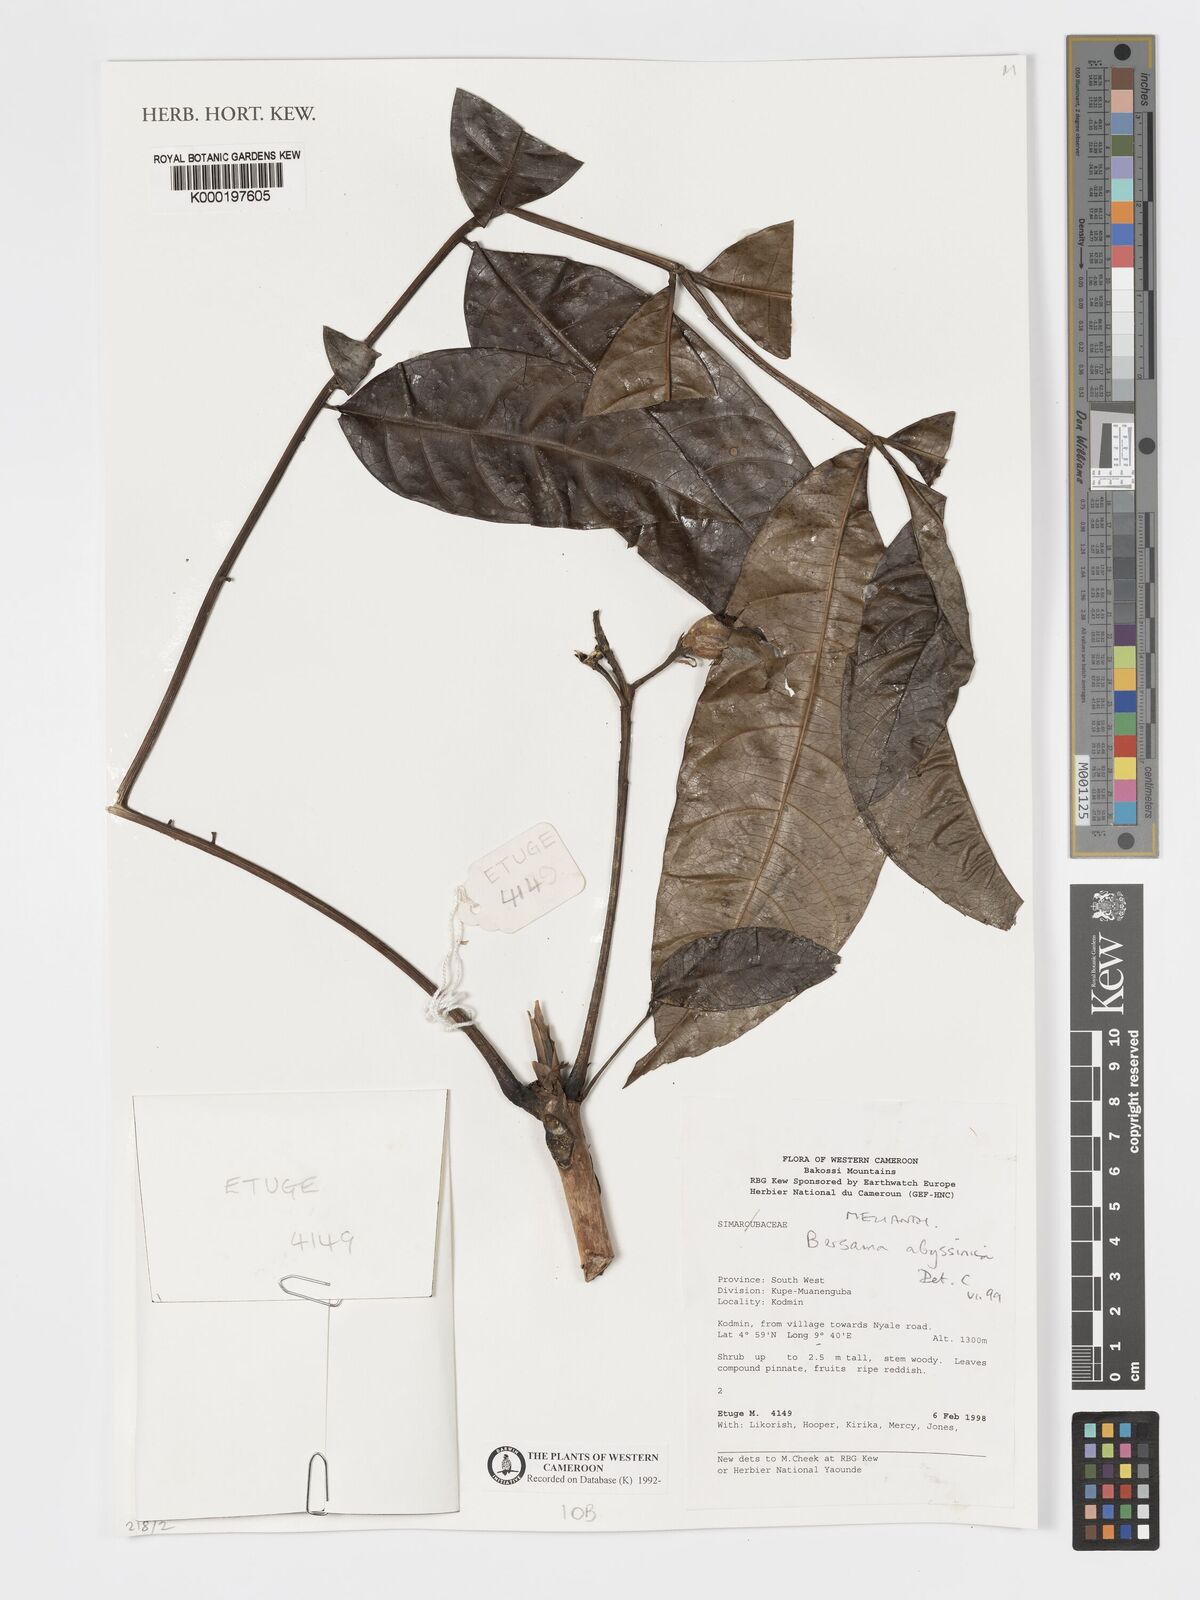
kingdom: Plantae
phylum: Tracheophyta
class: Magnoliopsida
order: Geraniales
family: Melianthaceae
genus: Bersama
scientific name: Bersama abyssinica
